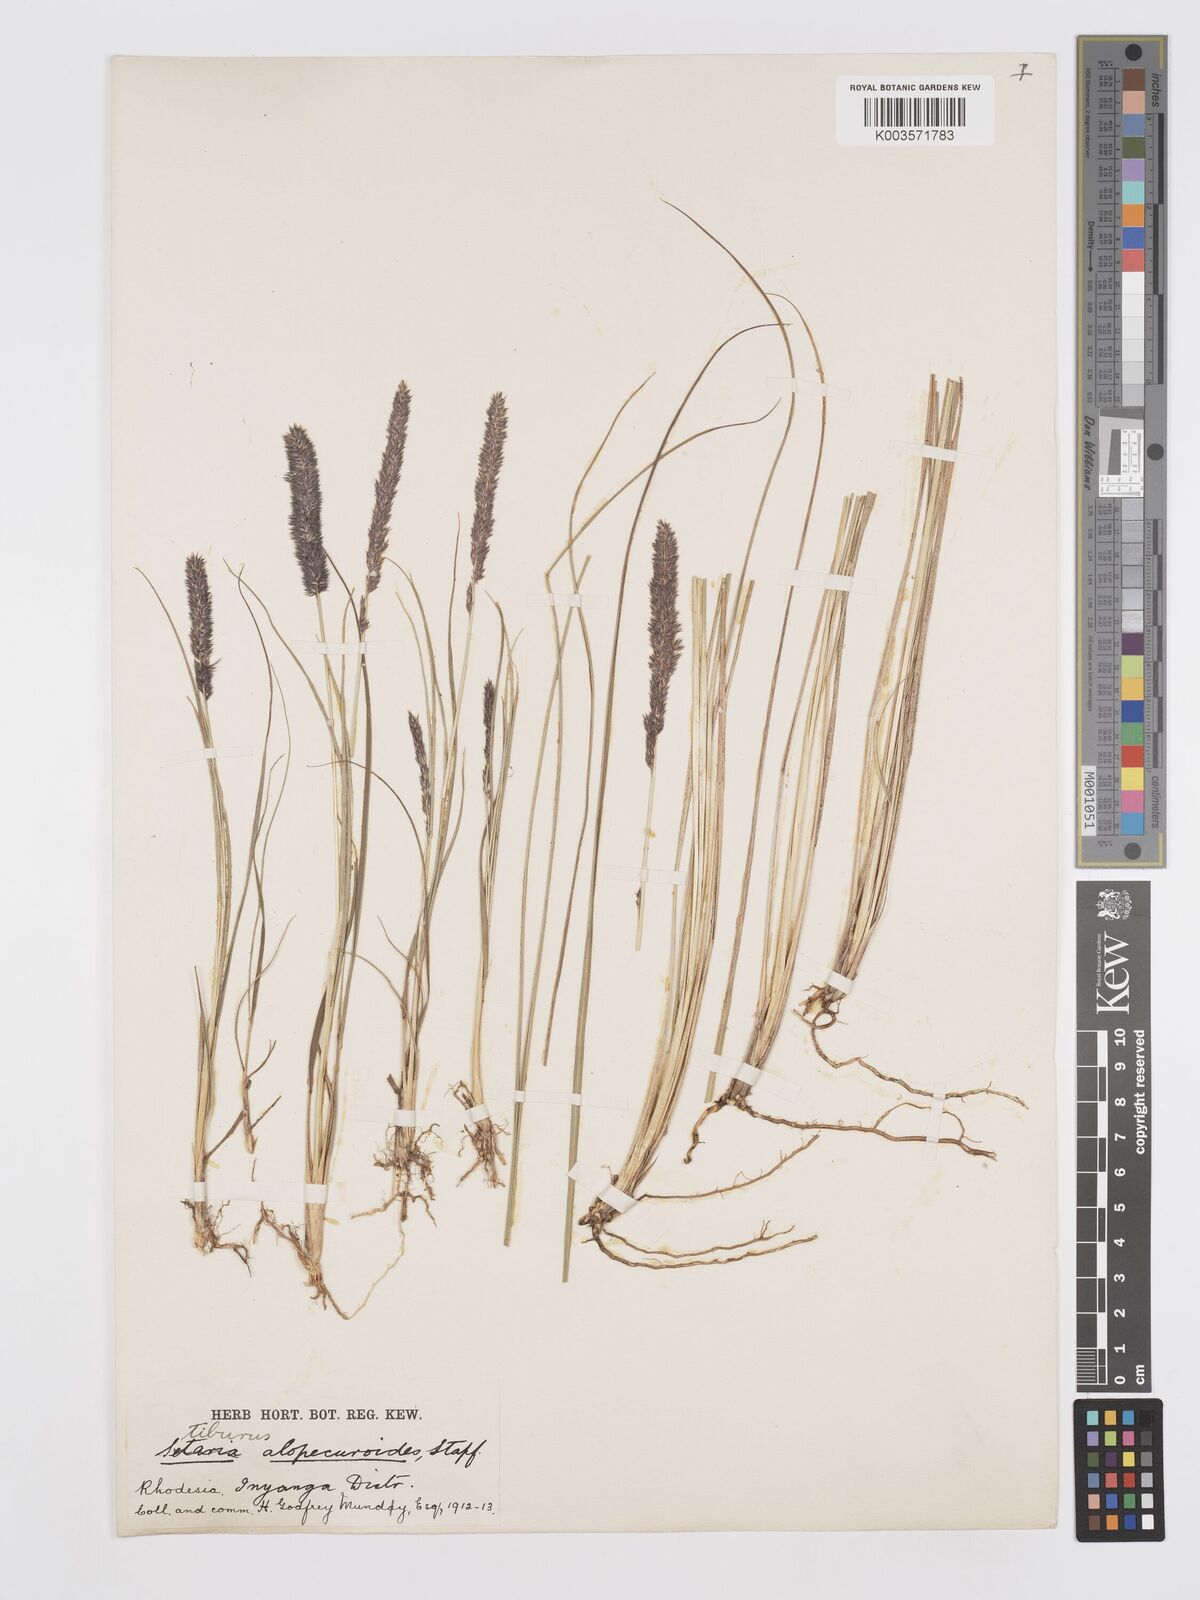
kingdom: Plantae
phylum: Tracheophyta
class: Liliopsida
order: Poales
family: Poaceae
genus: Stiburus
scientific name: Stiburus alopecuroides
